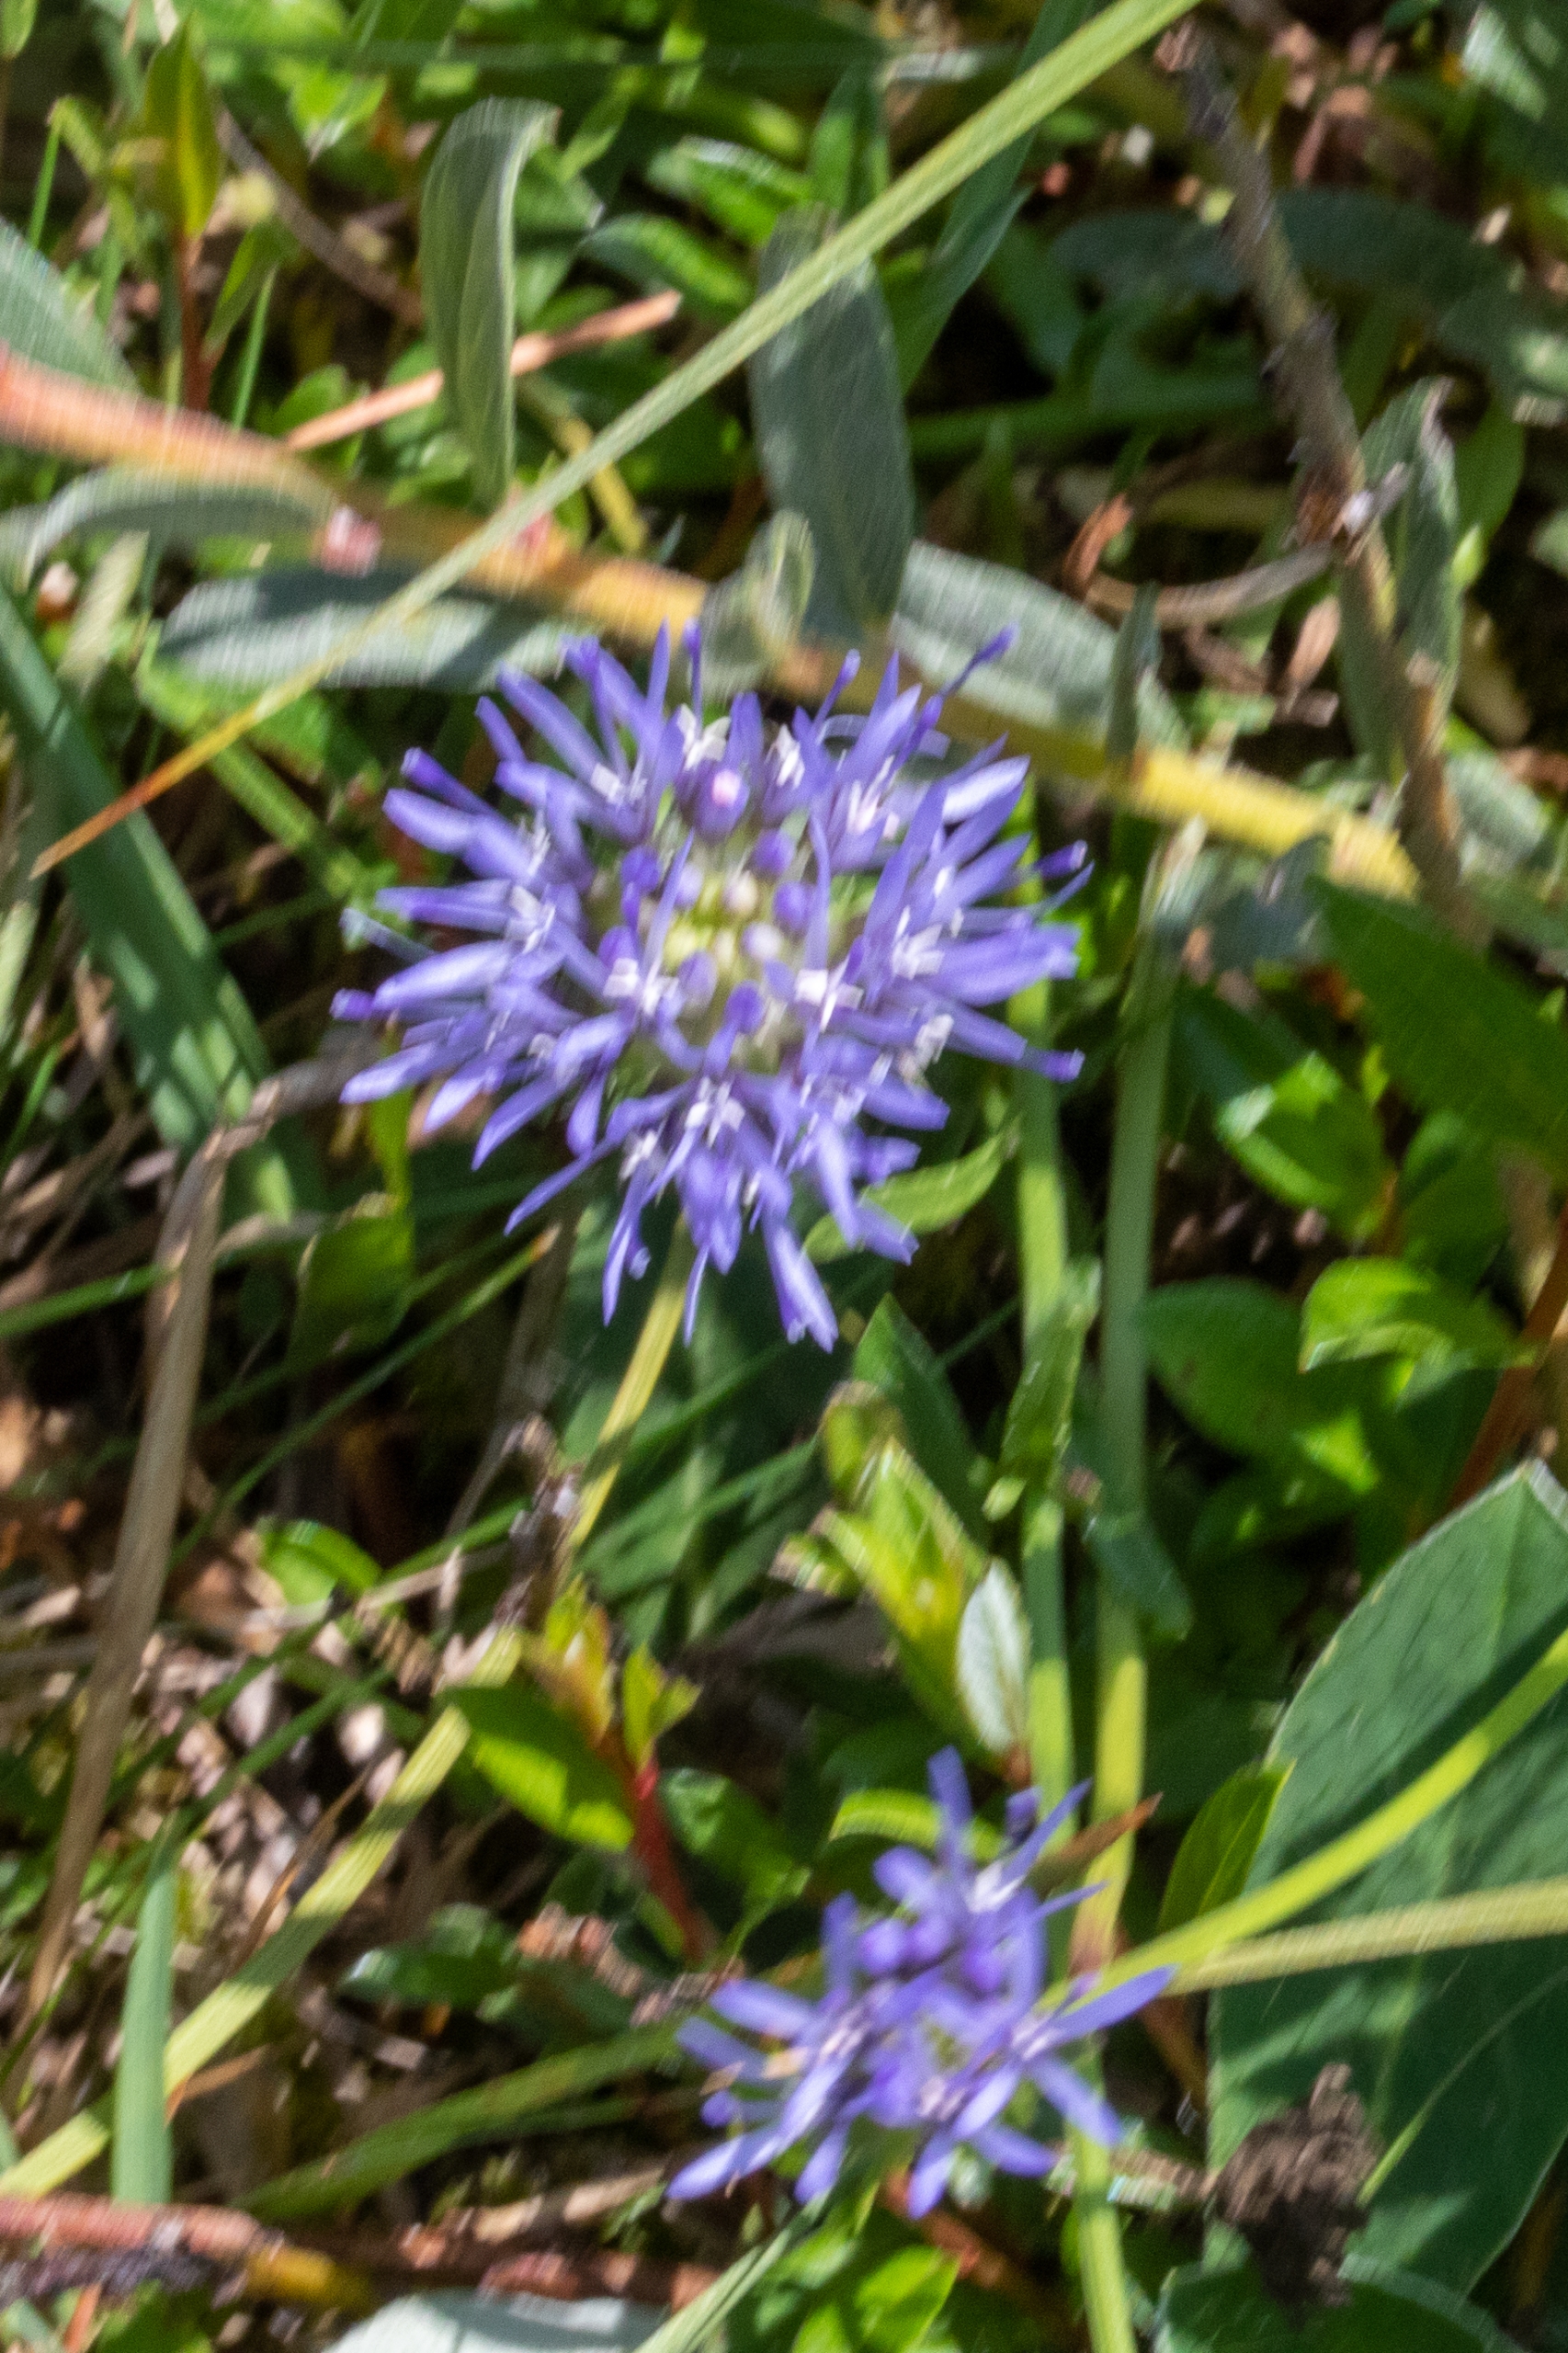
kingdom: Plantae
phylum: Tracheophyta
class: Magnoliopsida
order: Asterales
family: Campanulaceae
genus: Jasione
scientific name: Jasione montana
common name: Blåmunke
